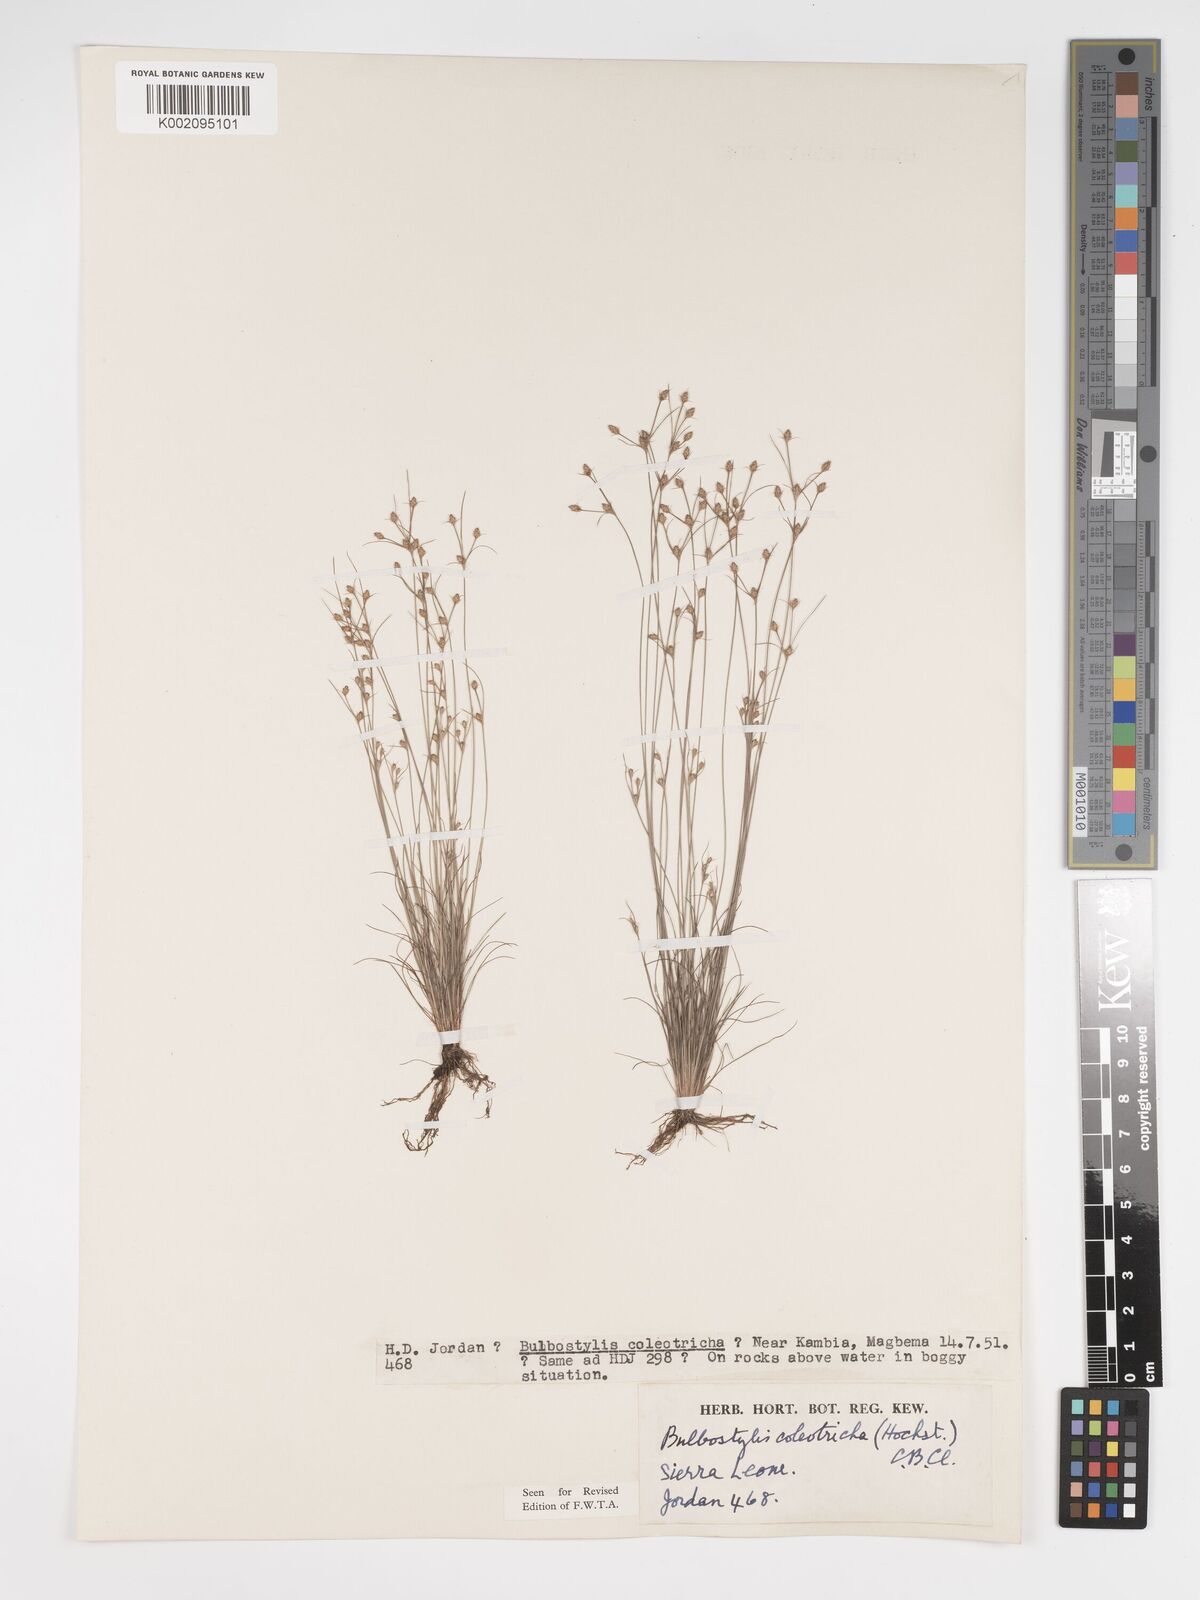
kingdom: Plantae
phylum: Tracheophyta
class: Liliopsida
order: Poales
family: Cyperaceae
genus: Bulbostylis
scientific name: Bulbostylis coleotricha
